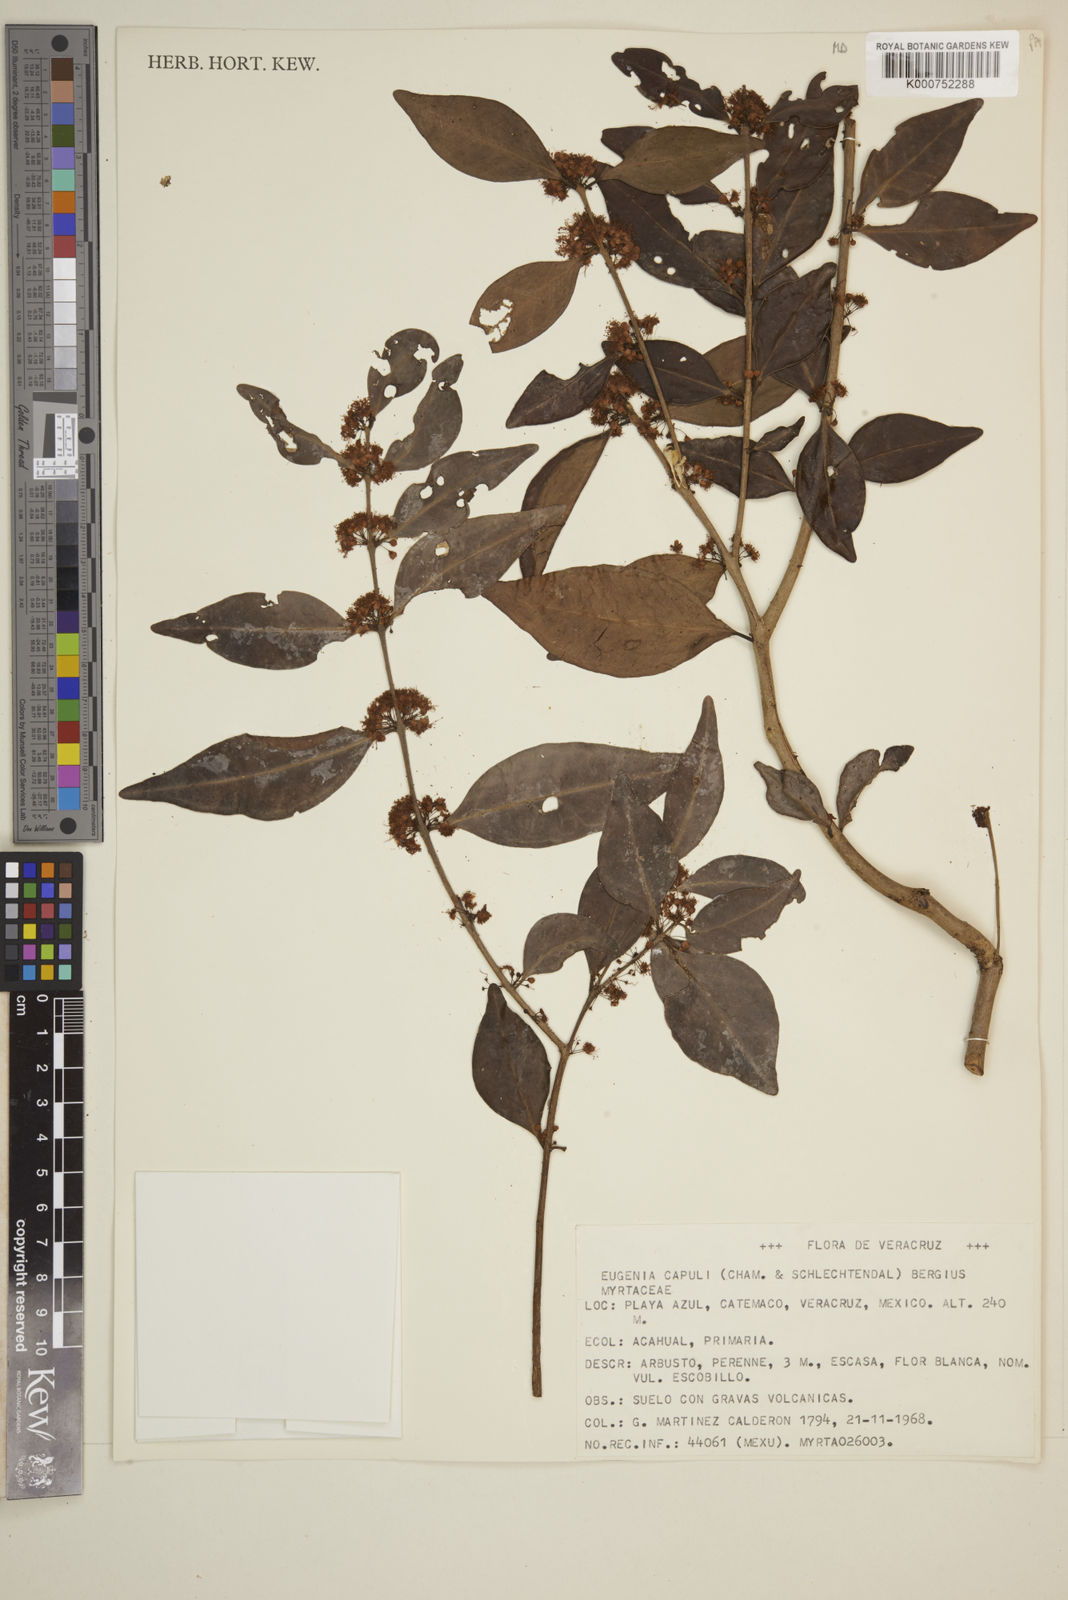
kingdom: Plantae
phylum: Tracheophyta
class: Magnoliopsida
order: Myrtales
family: Myrtaceae
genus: Eugenia
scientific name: Eugenia capuli
